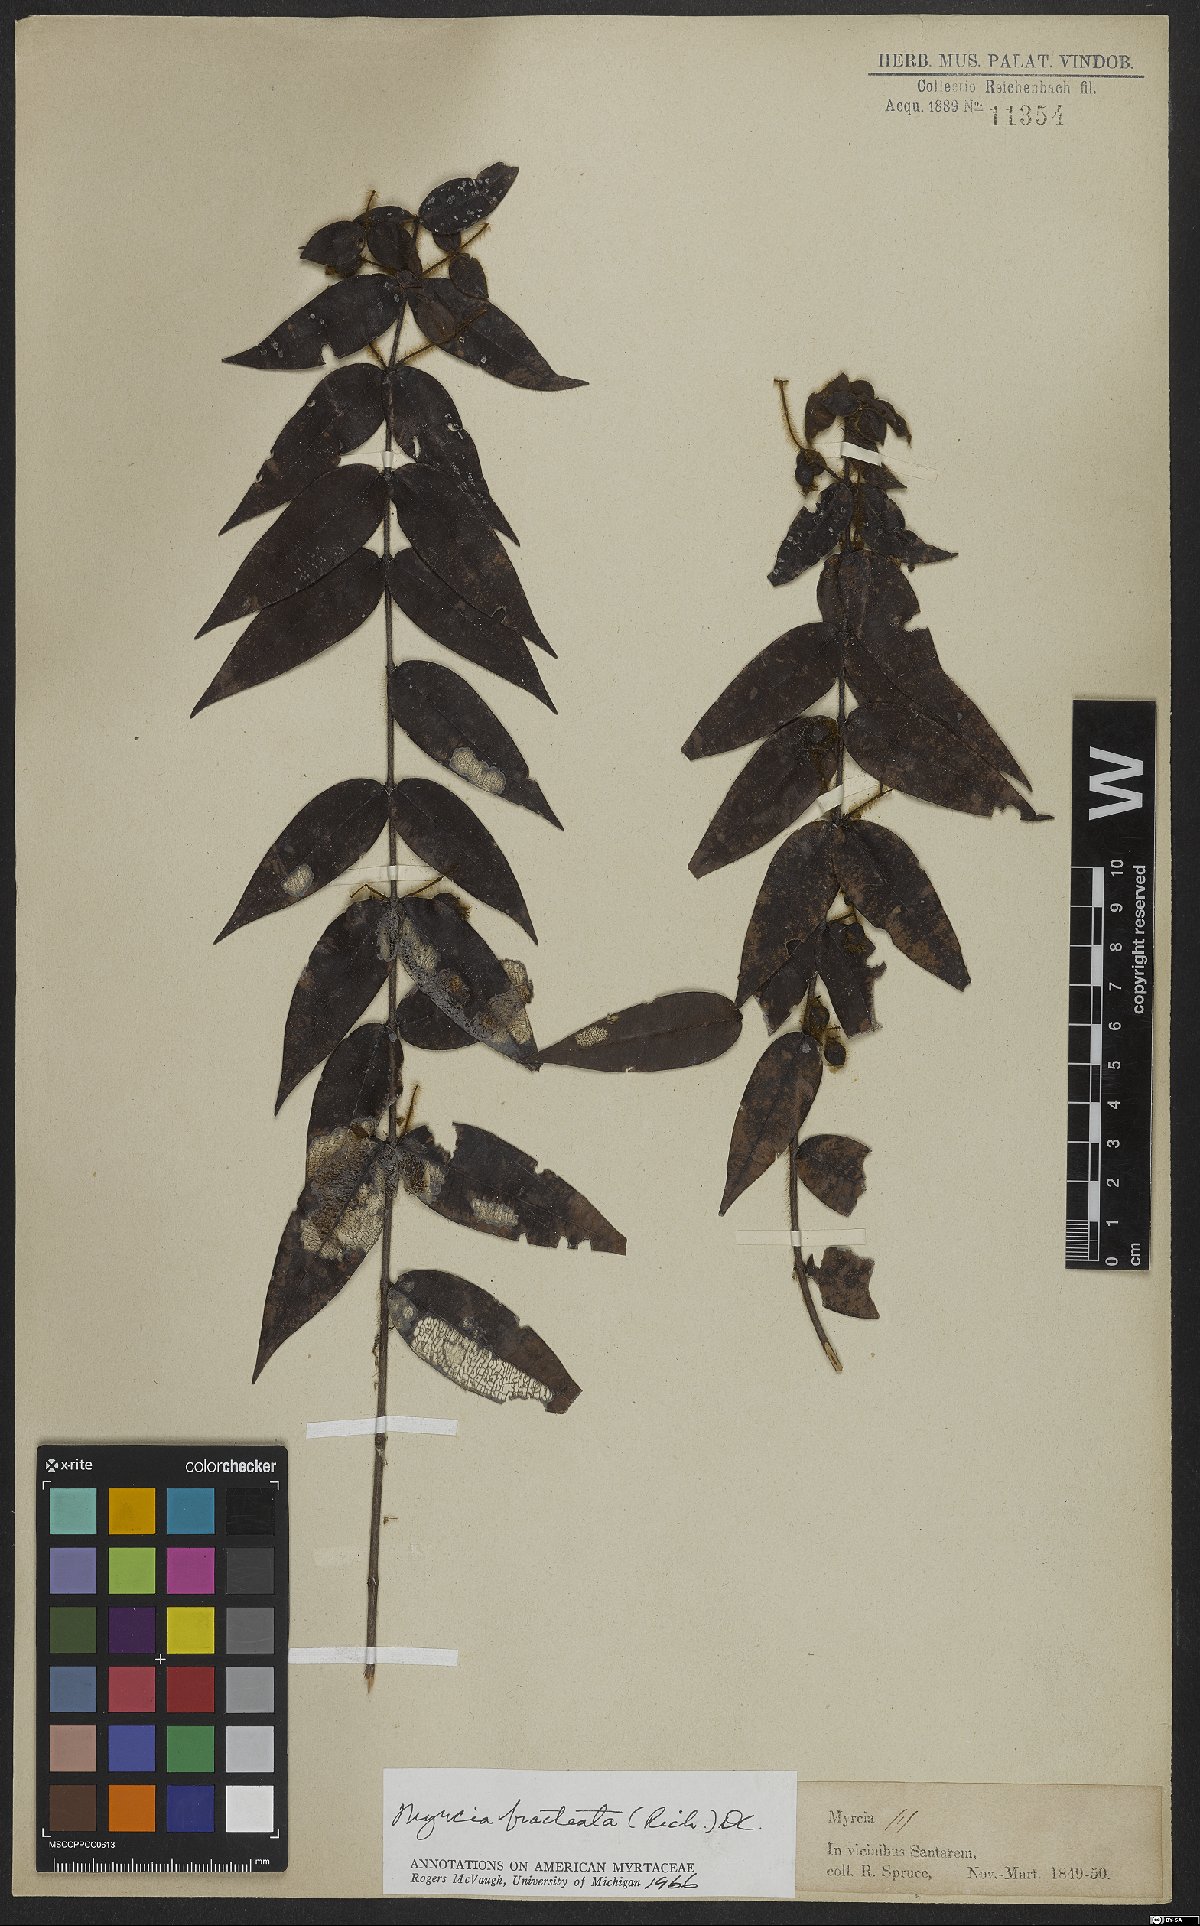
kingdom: Plantae
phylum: Tracheophyta
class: Magnoliopsida
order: Myrtales
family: Myrtaceae
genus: Myrcia
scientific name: Myrcia bracteata
